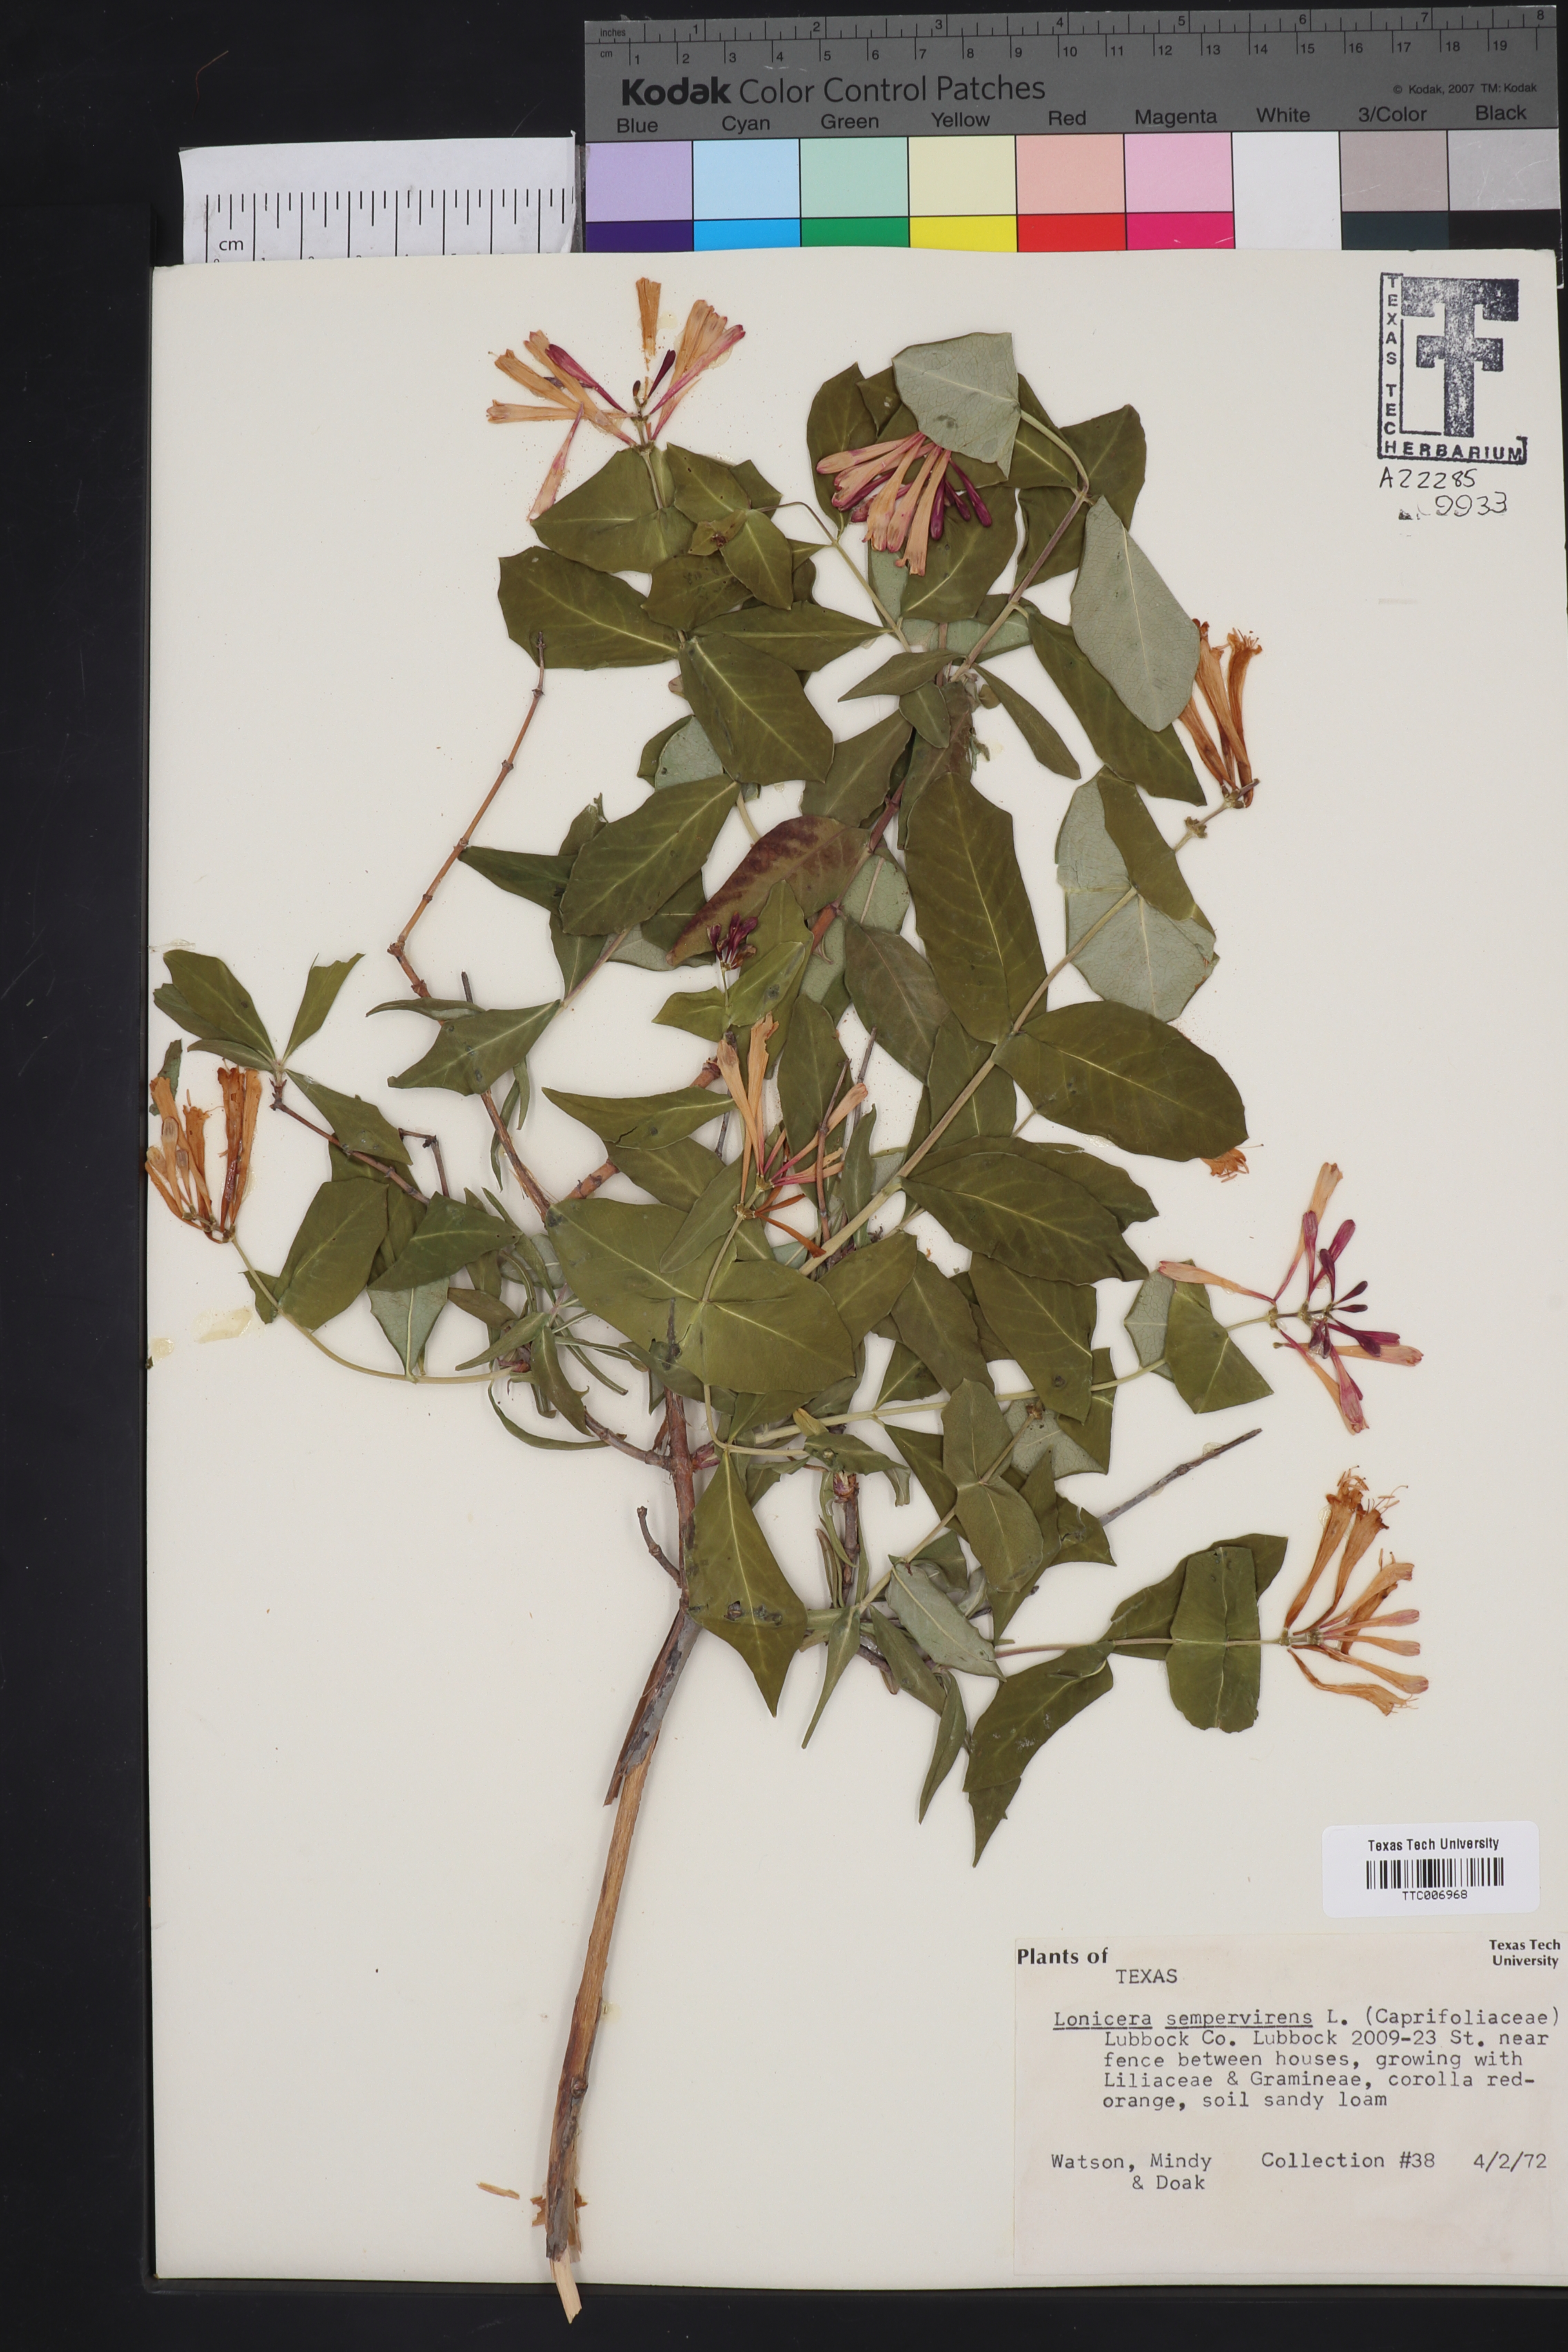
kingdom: Plantae
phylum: Tracheophyta
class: Magnoliopsida
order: Dipsacales
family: Caprifoliaceae
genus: Lonicera
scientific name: Lonicera sempervirens
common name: Coral honeysuckle
